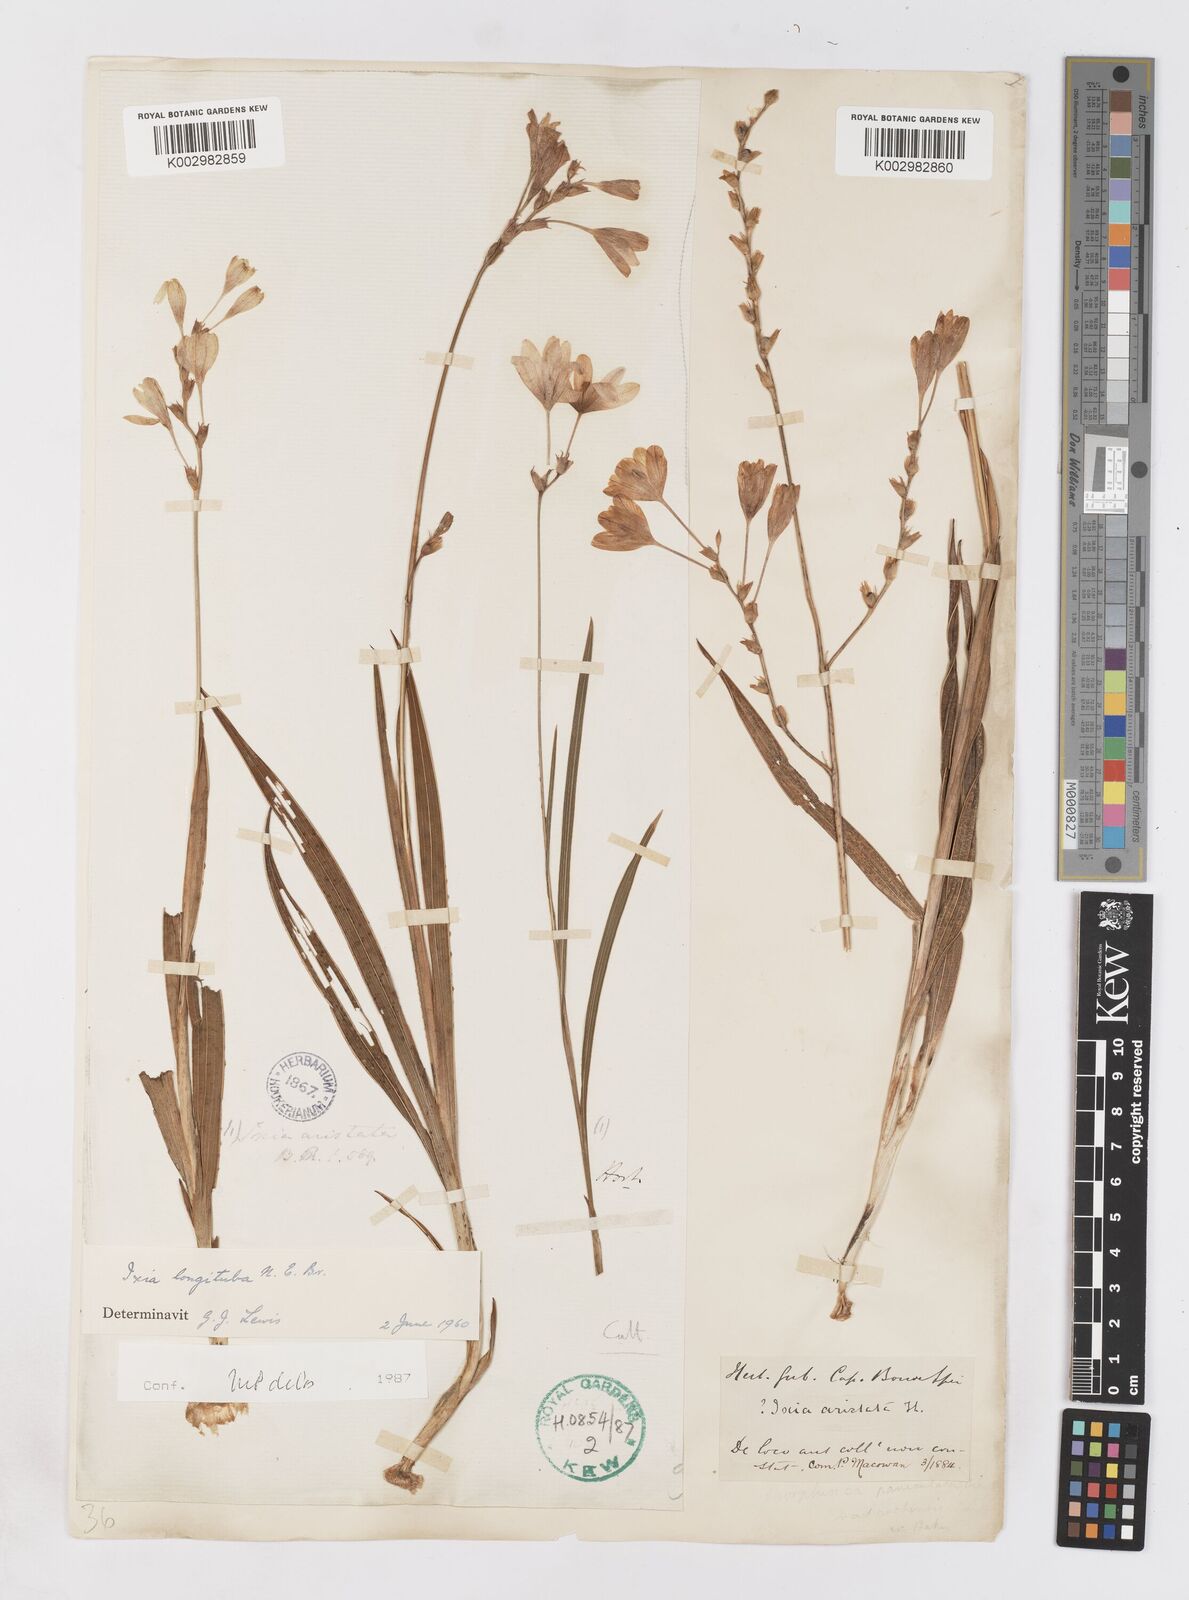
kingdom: Plantae
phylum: Tracheophyta
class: Liliopsida
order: Asparagales
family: Iridaceae
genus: Ixia
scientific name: Ixia longituba
